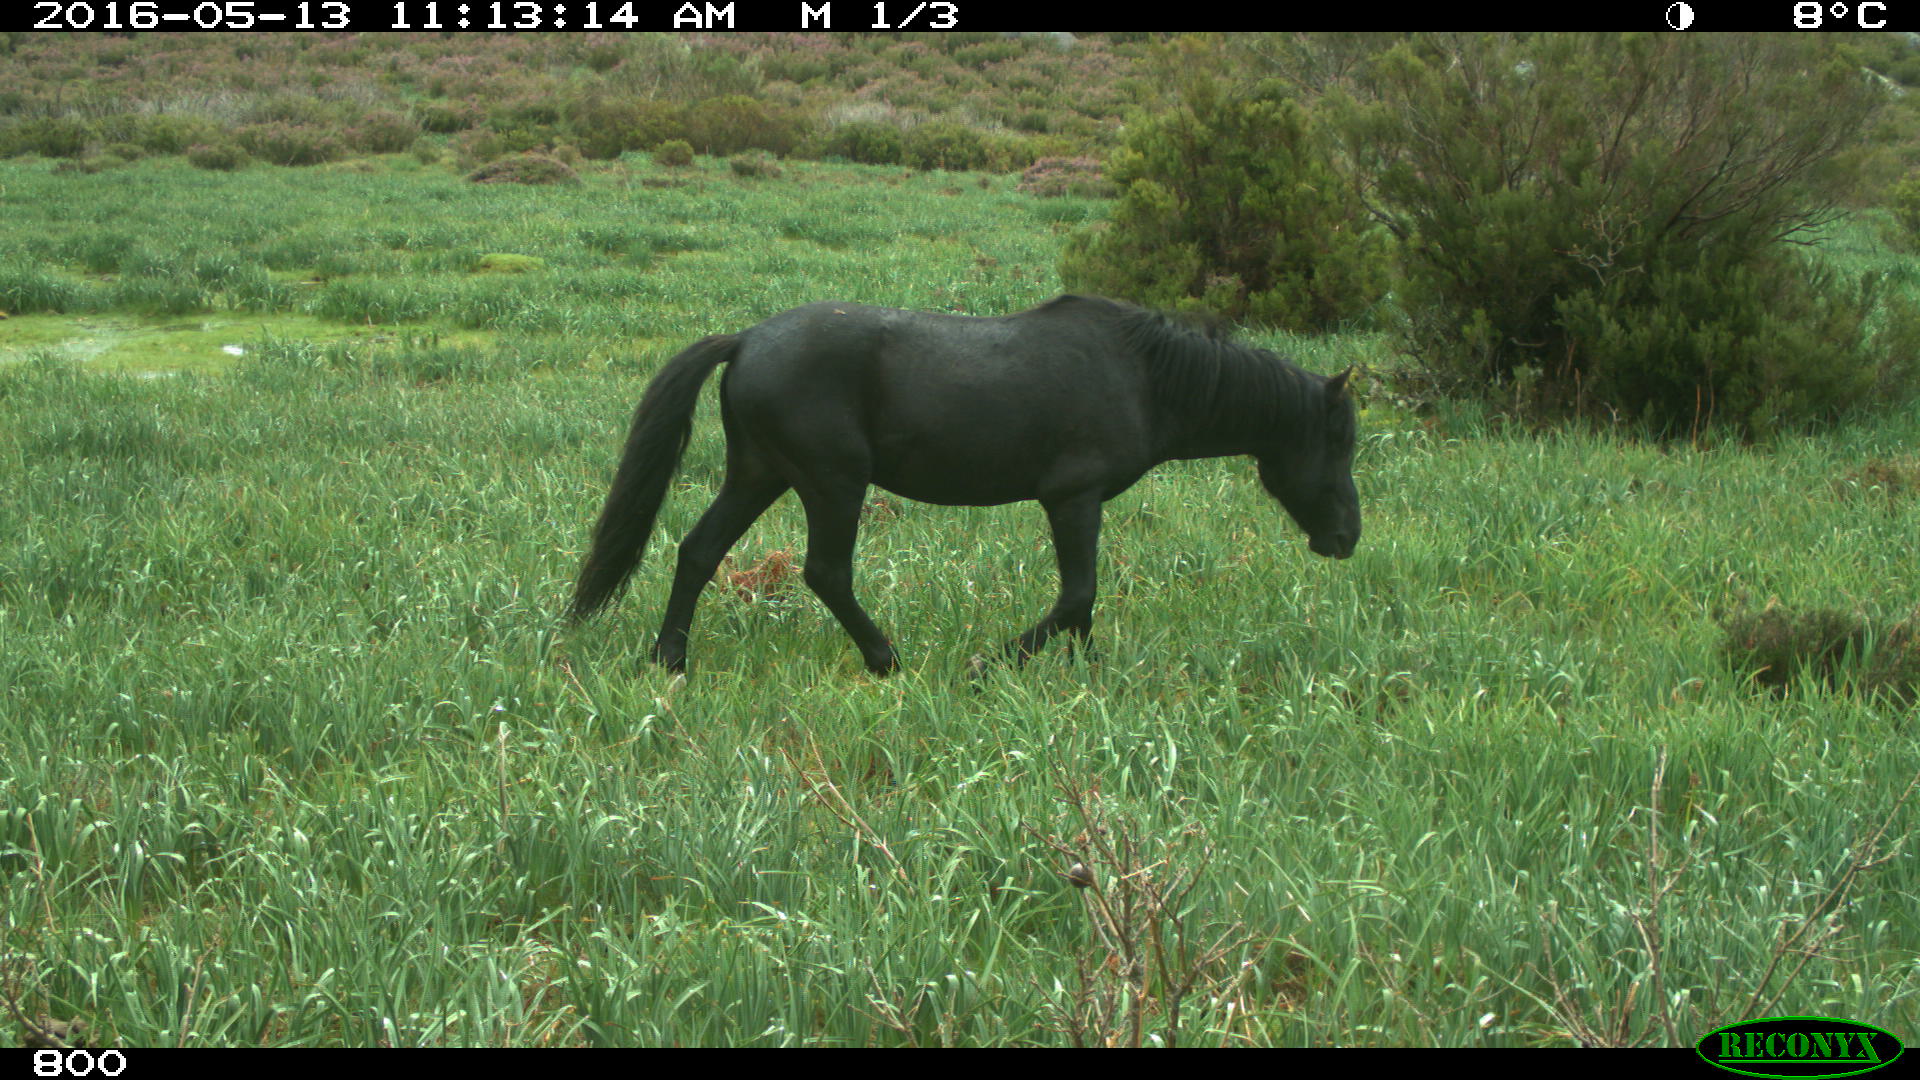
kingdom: Animalia
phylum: Chordata
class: Mammalia
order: Perissodactyla
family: Equidae
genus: Equus
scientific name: Equus caballus
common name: Horse
